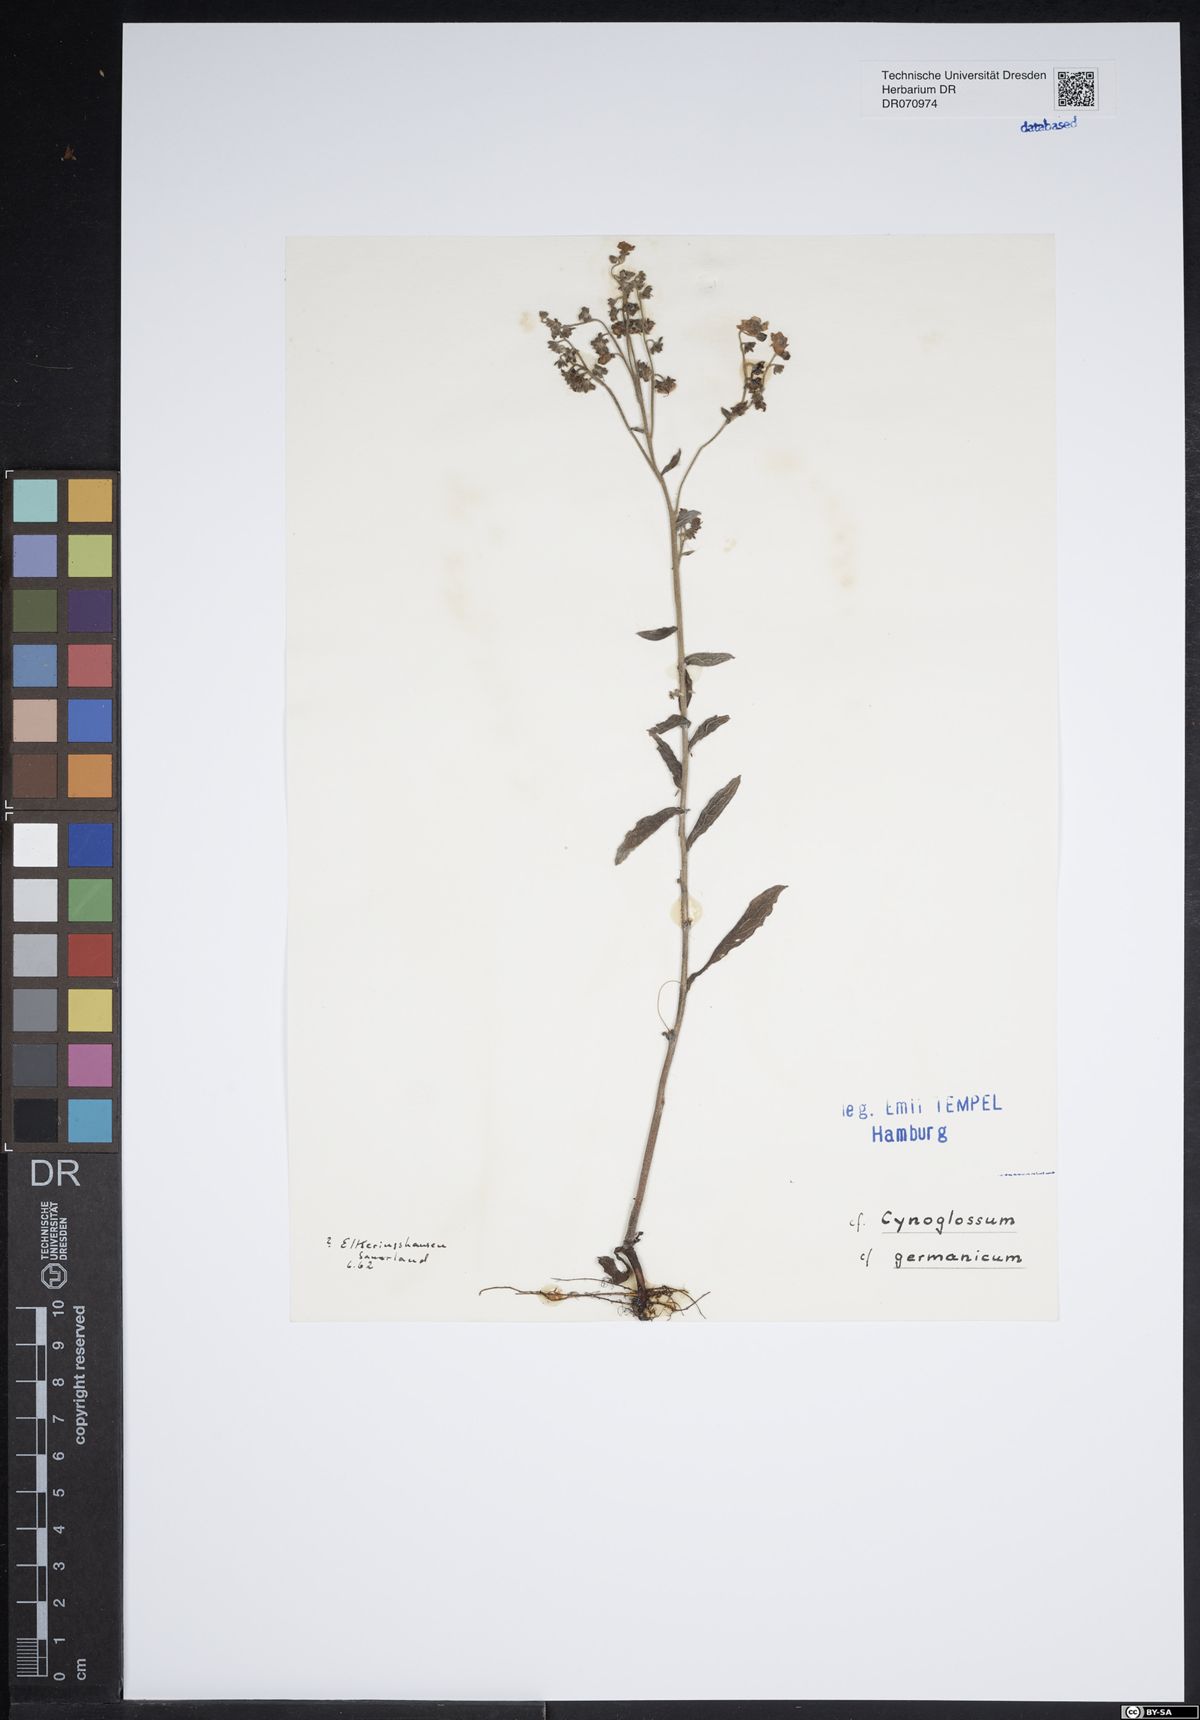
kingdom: Plantae
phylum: Tracheophyta
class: Magnoliopsida
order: Boraginales
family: Boraginaceae
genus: Cynoglossum
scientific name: Cynoglossum germanicum
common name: Green hound's-tongue
